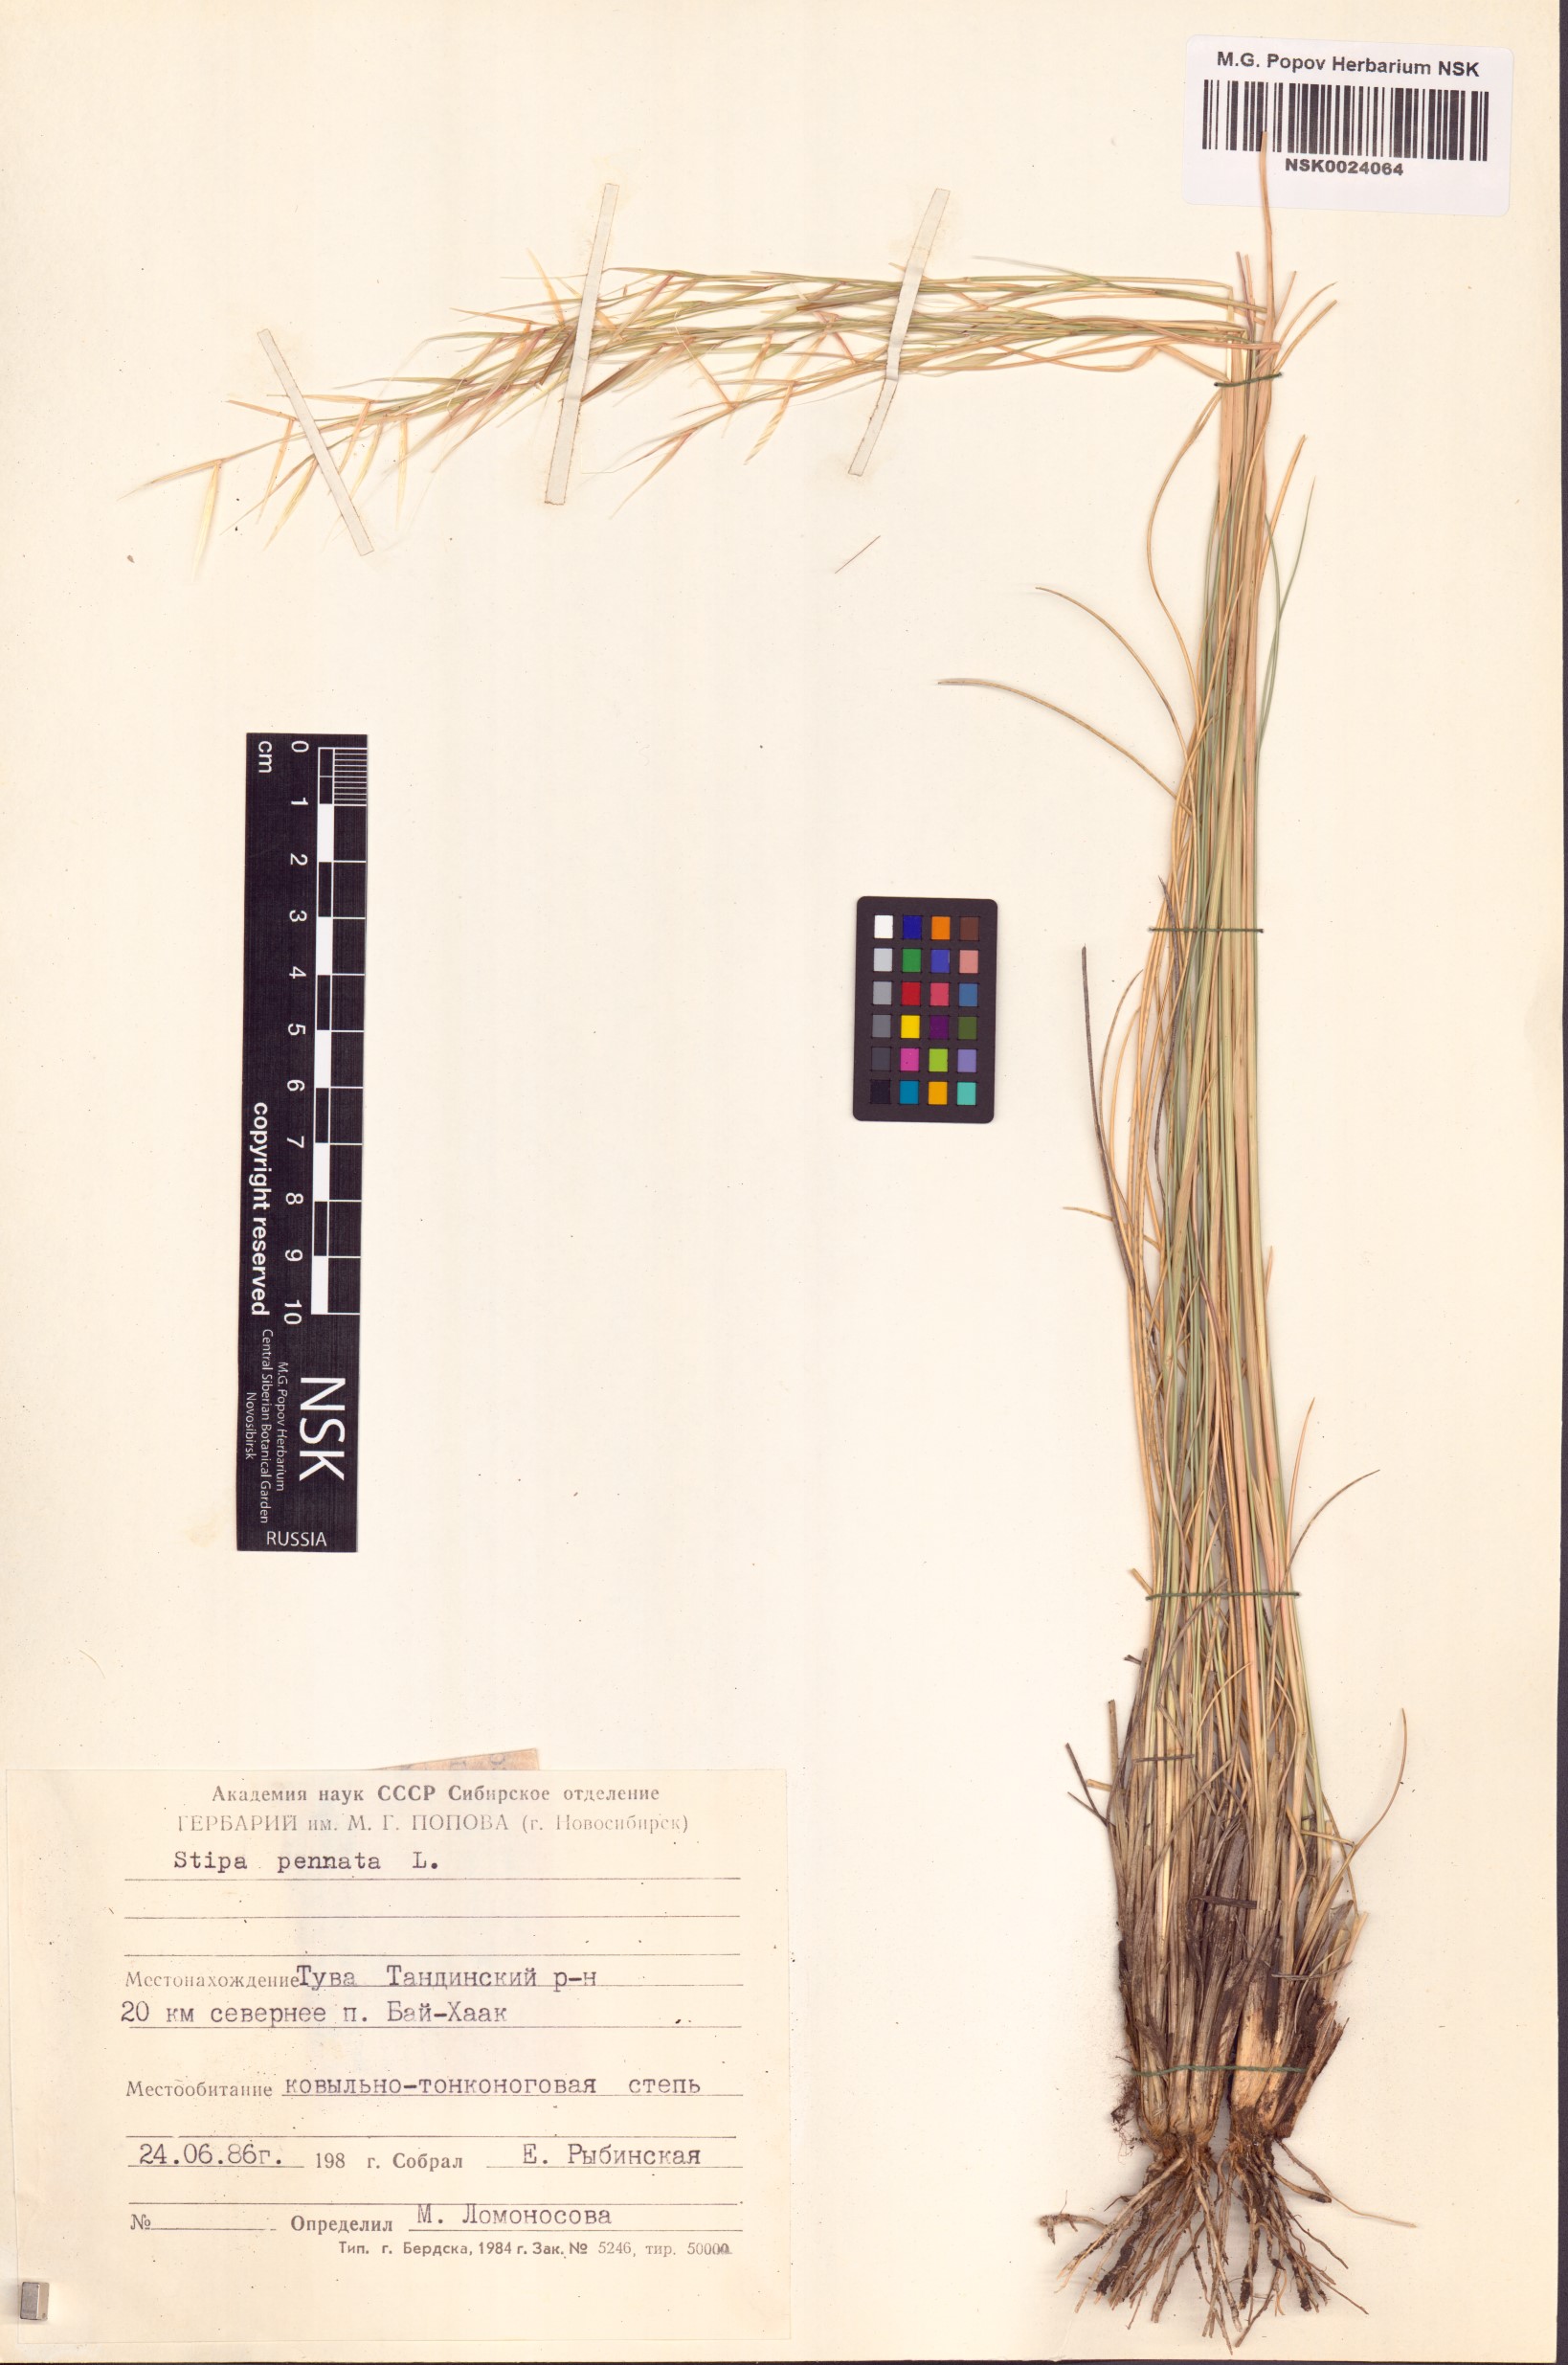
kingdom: Plantae
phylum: Tracheophyta
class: Liliopsida
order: Poales
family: Poaceae
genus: Stipa
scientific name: Stipa pennata
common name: European feather grass
